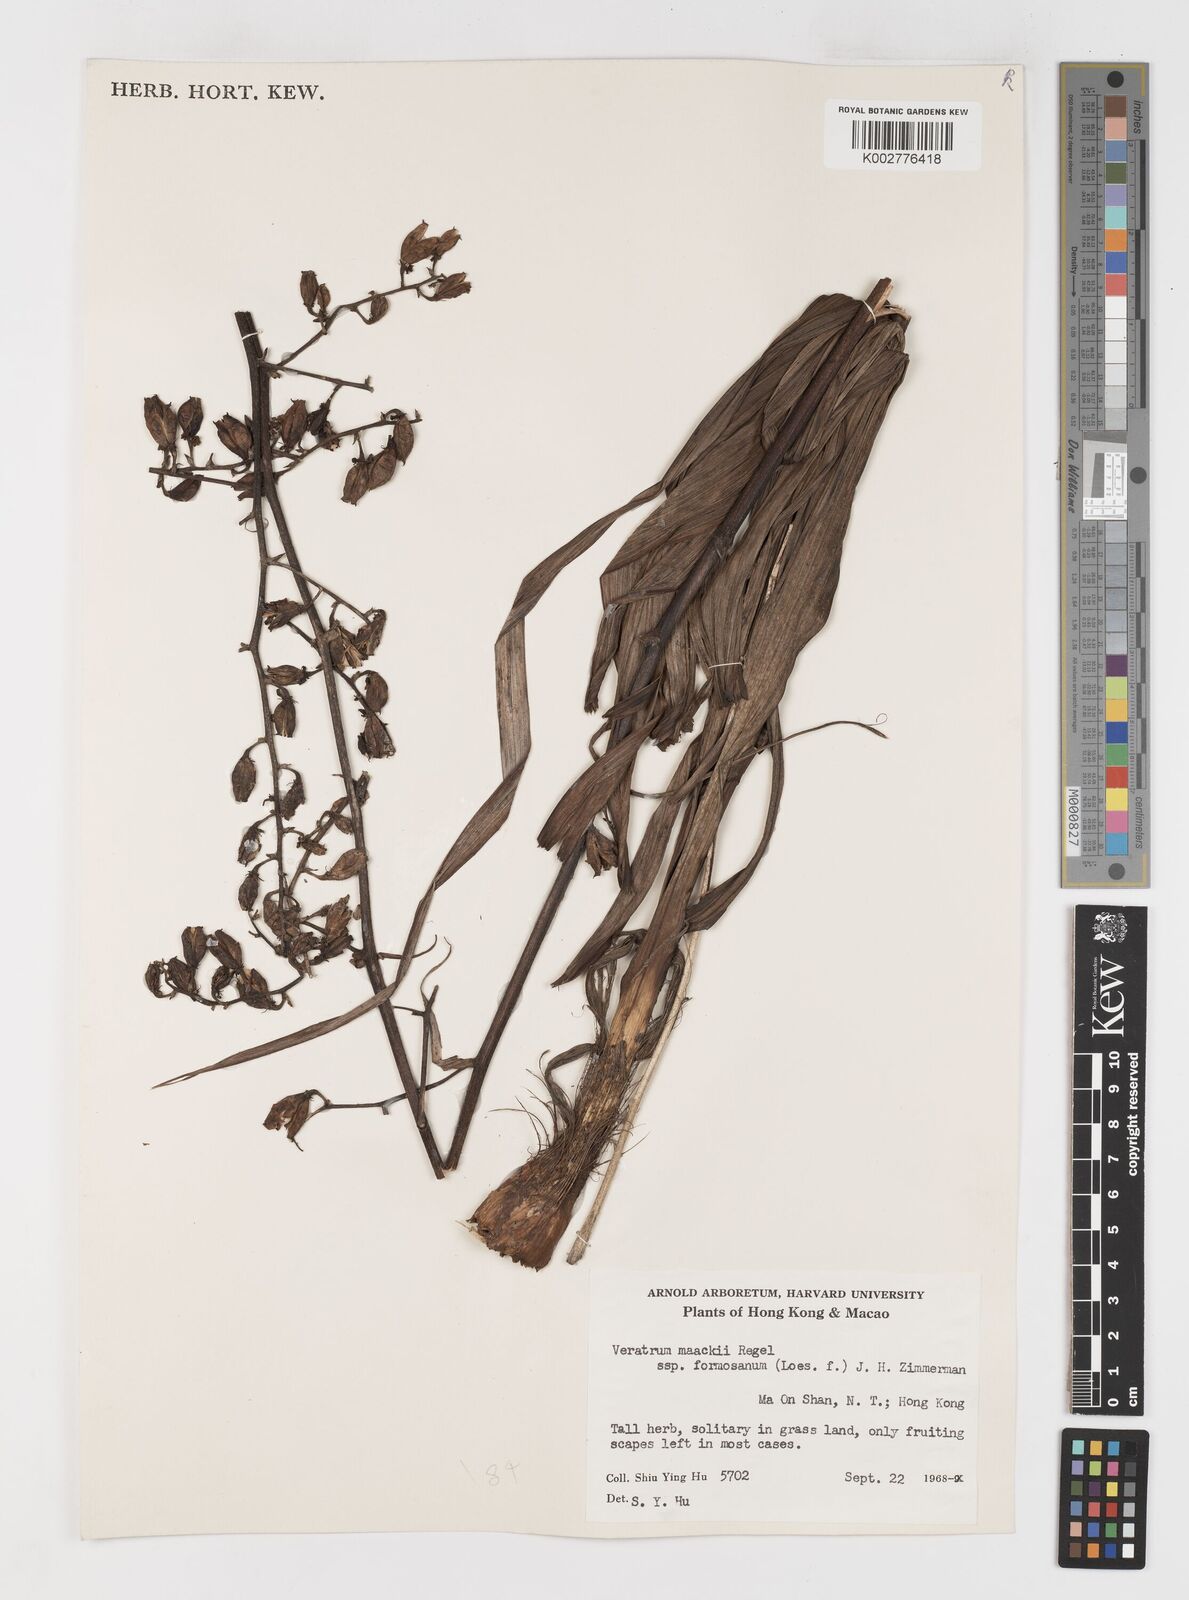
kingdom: Plantae
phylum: Tracheophyta
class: Liliopsida
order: Liliales
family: Melanthiaceae
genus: Veratrum
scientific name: Veratrum formosanum
